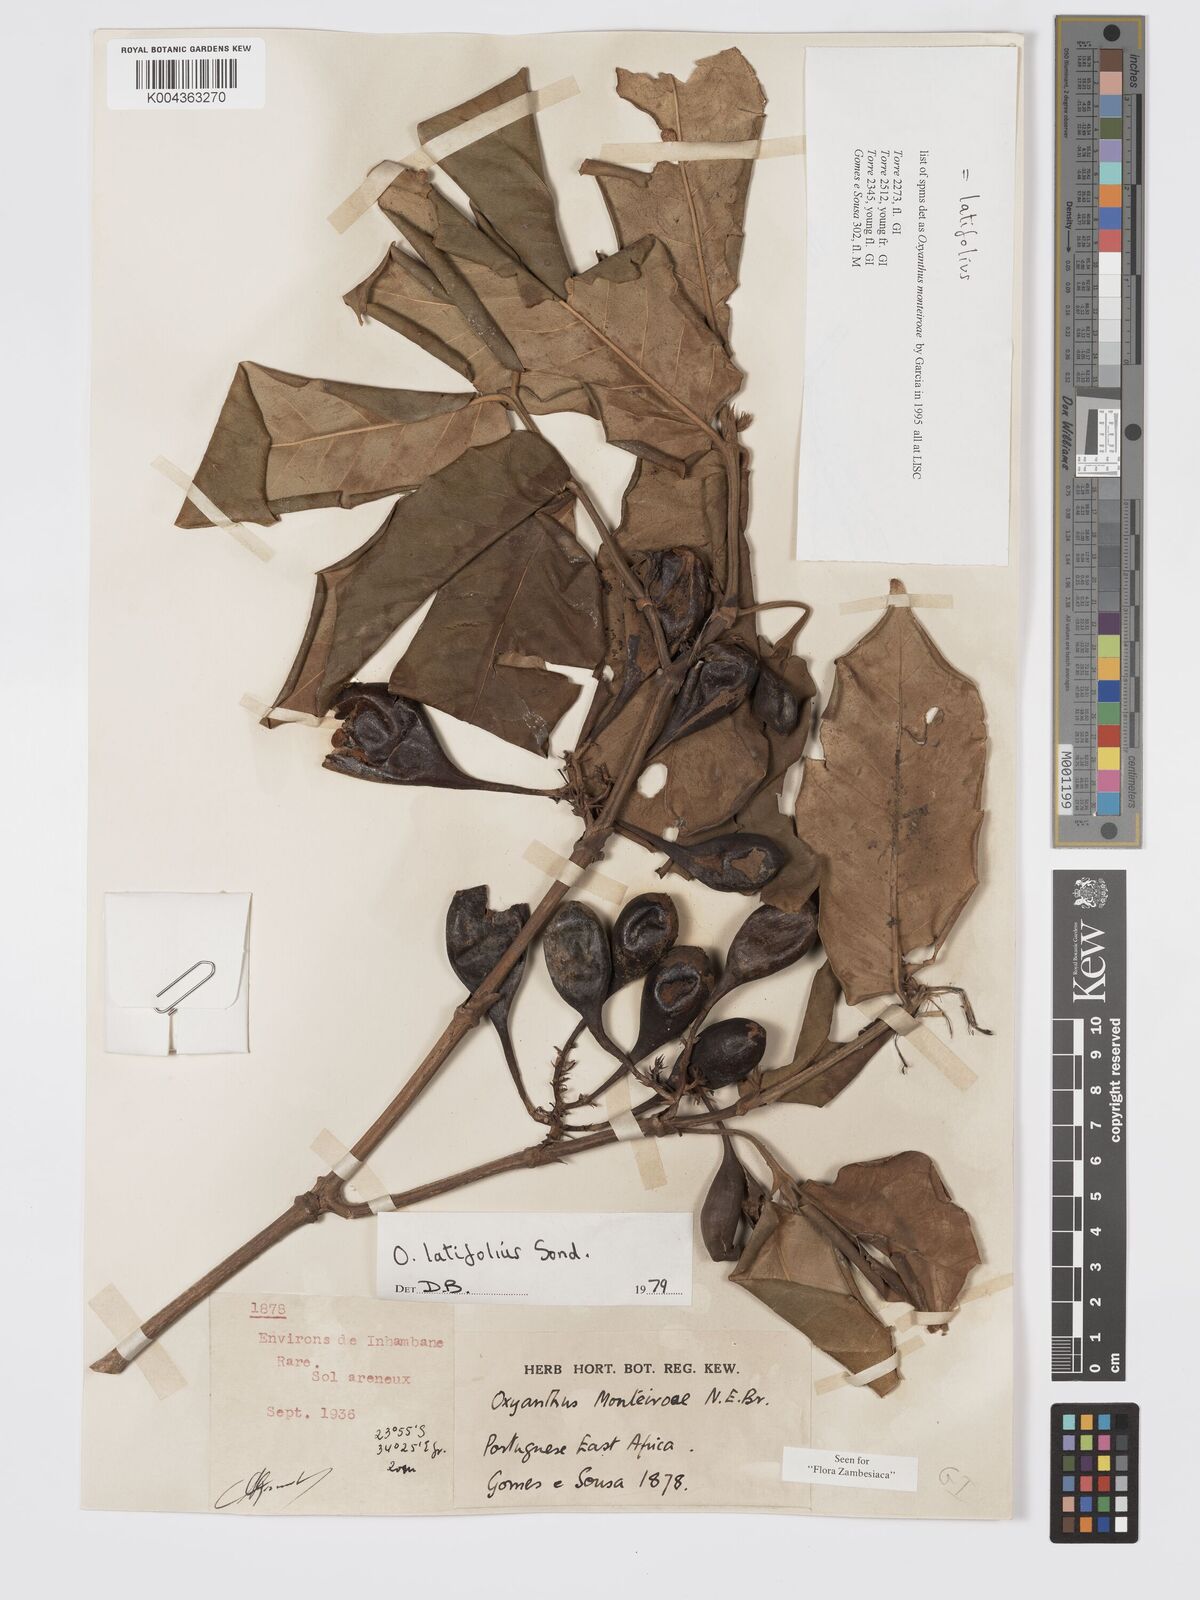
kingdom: Plantae
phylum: Tracheophyta
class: Magnoliopsida
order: Gentianales
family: Rubiaceae
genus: Oxyanthus
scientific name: Oxyanthus latifolius
